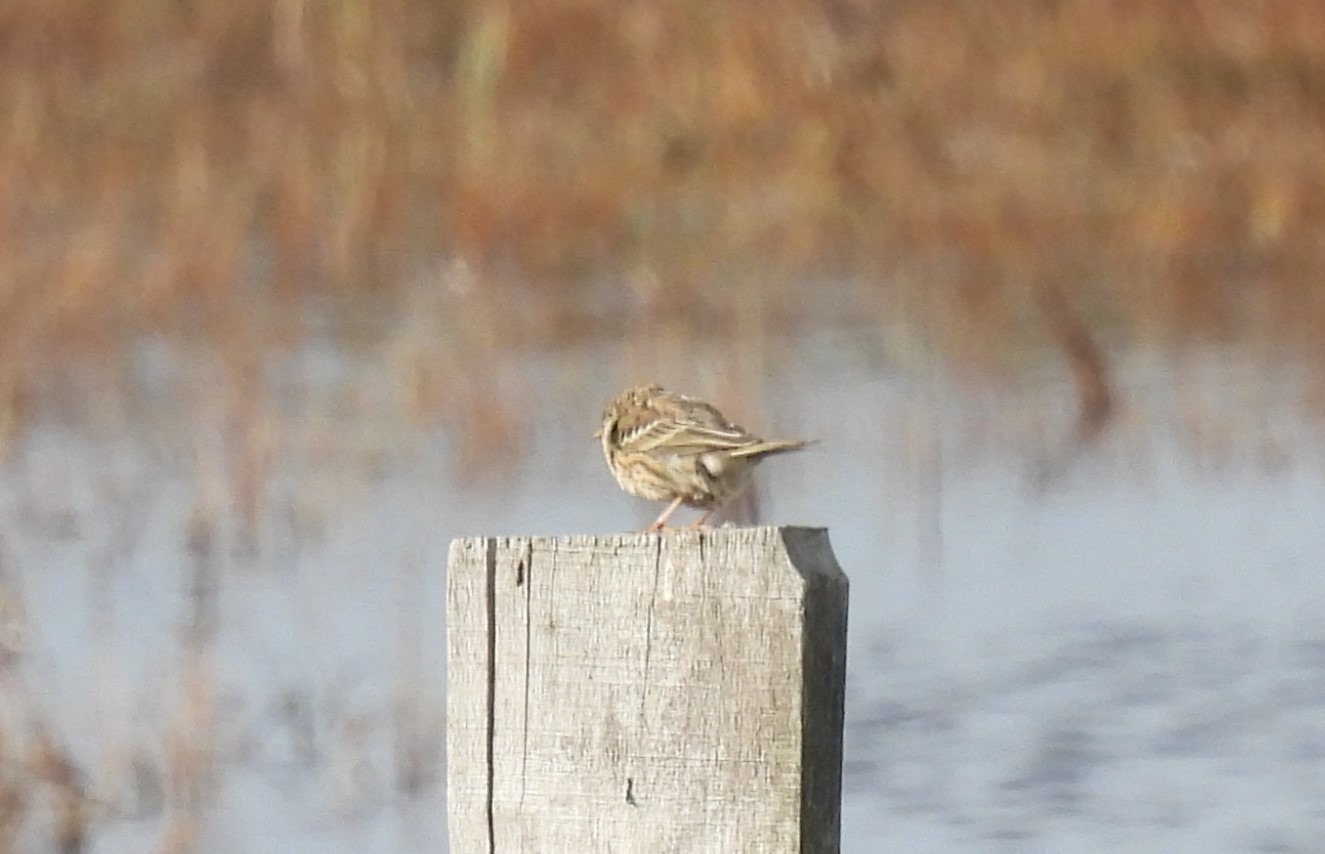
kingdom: Animalia
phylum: Chordata
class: Aves
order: Passeriformes
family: Motacillidae
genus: Anthus
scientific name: Anthus pratensis
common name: Engpiber
